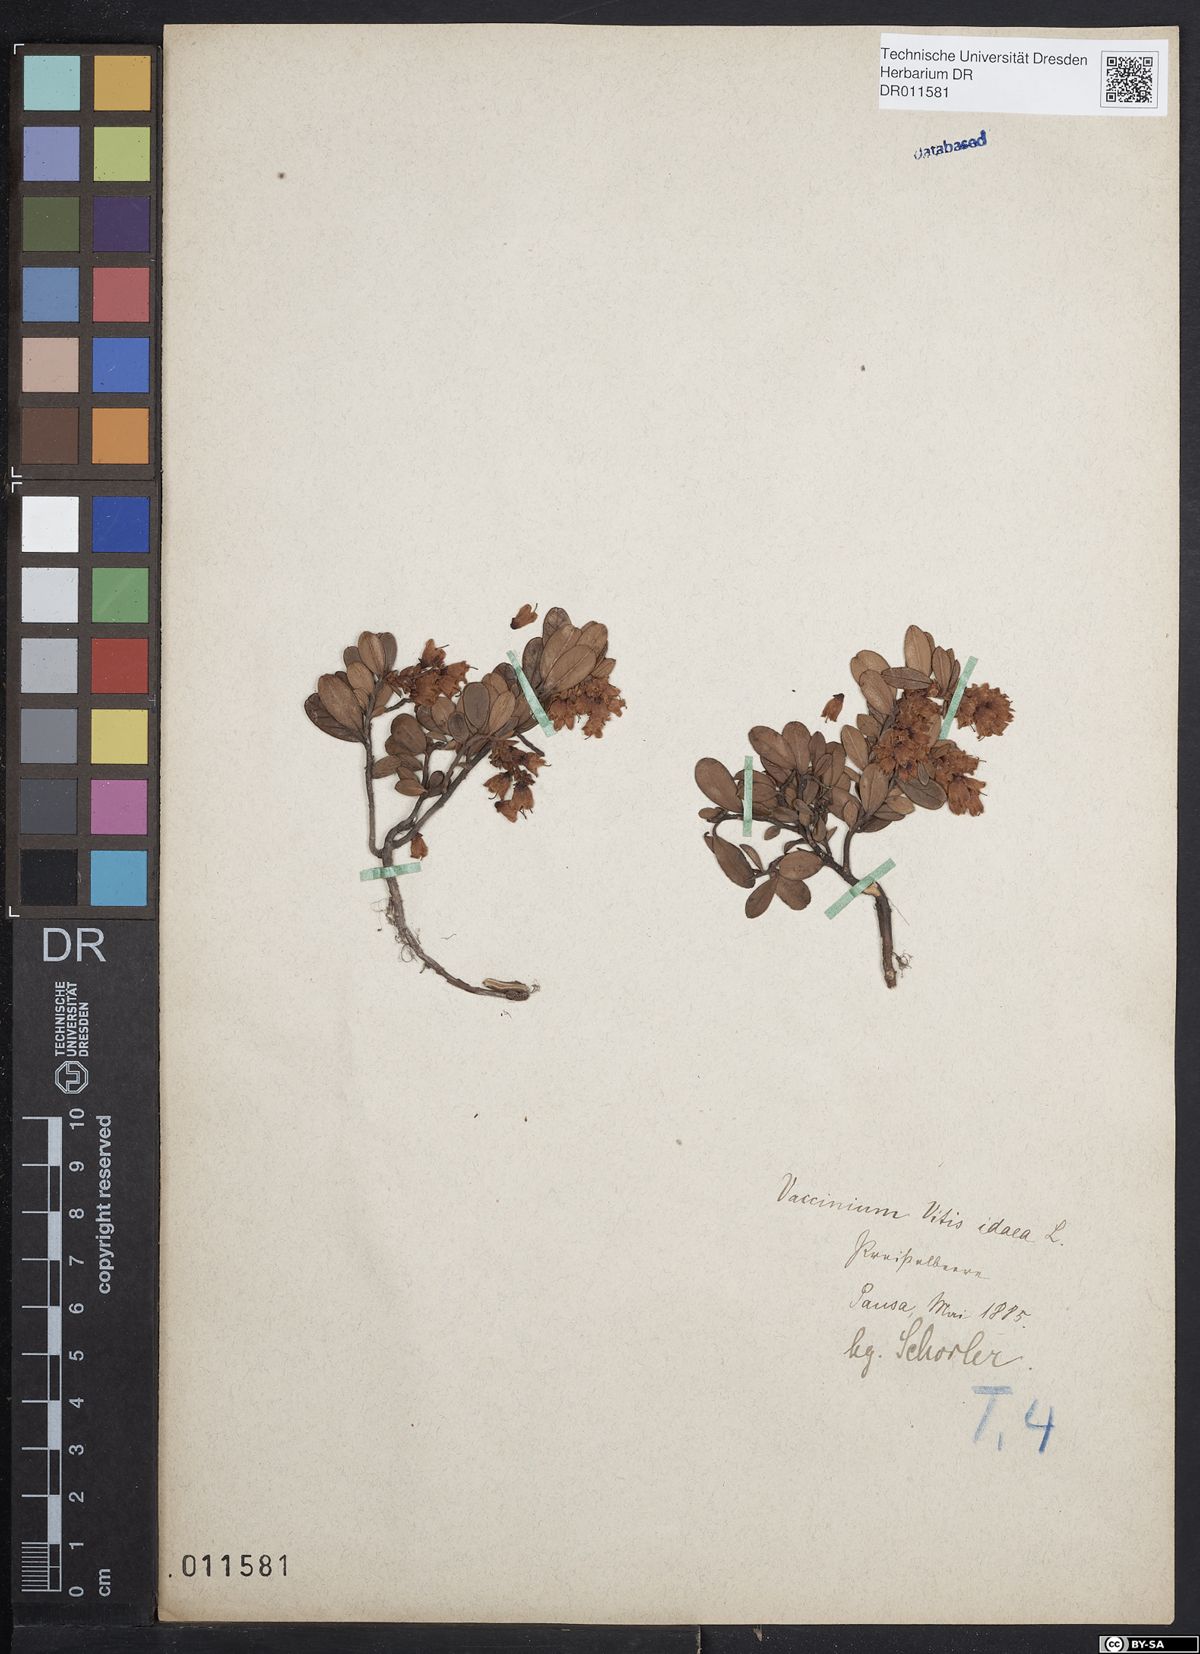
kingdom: Plantae
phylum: Tracheophyta
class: Magnoliopsida
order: Ericales
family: Ericaceae
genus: Vaccinium
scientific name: Vaccinium vitis-idaea
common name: Cowberry
